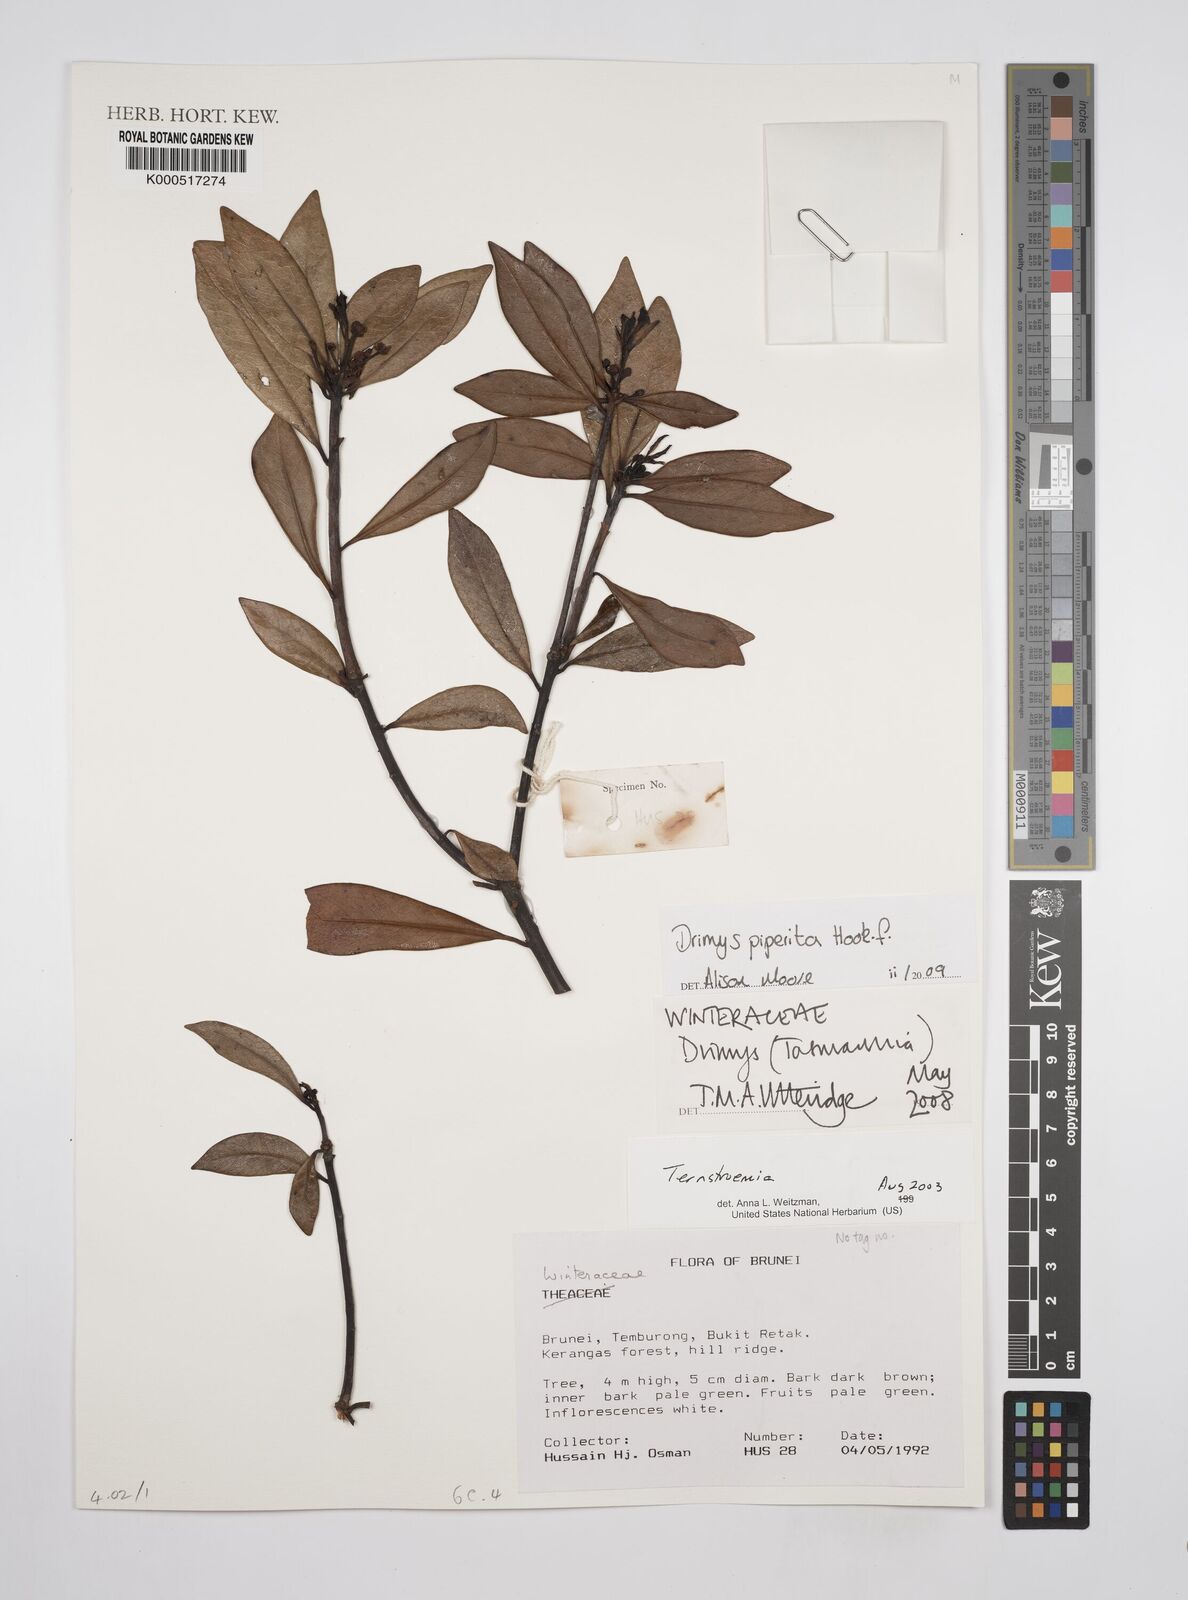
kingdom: Plantae
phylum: Tracheophyta
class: Magnoliopsida
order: Canellales
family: Winteraceae
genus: Drimys
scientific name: Drimys piperita
